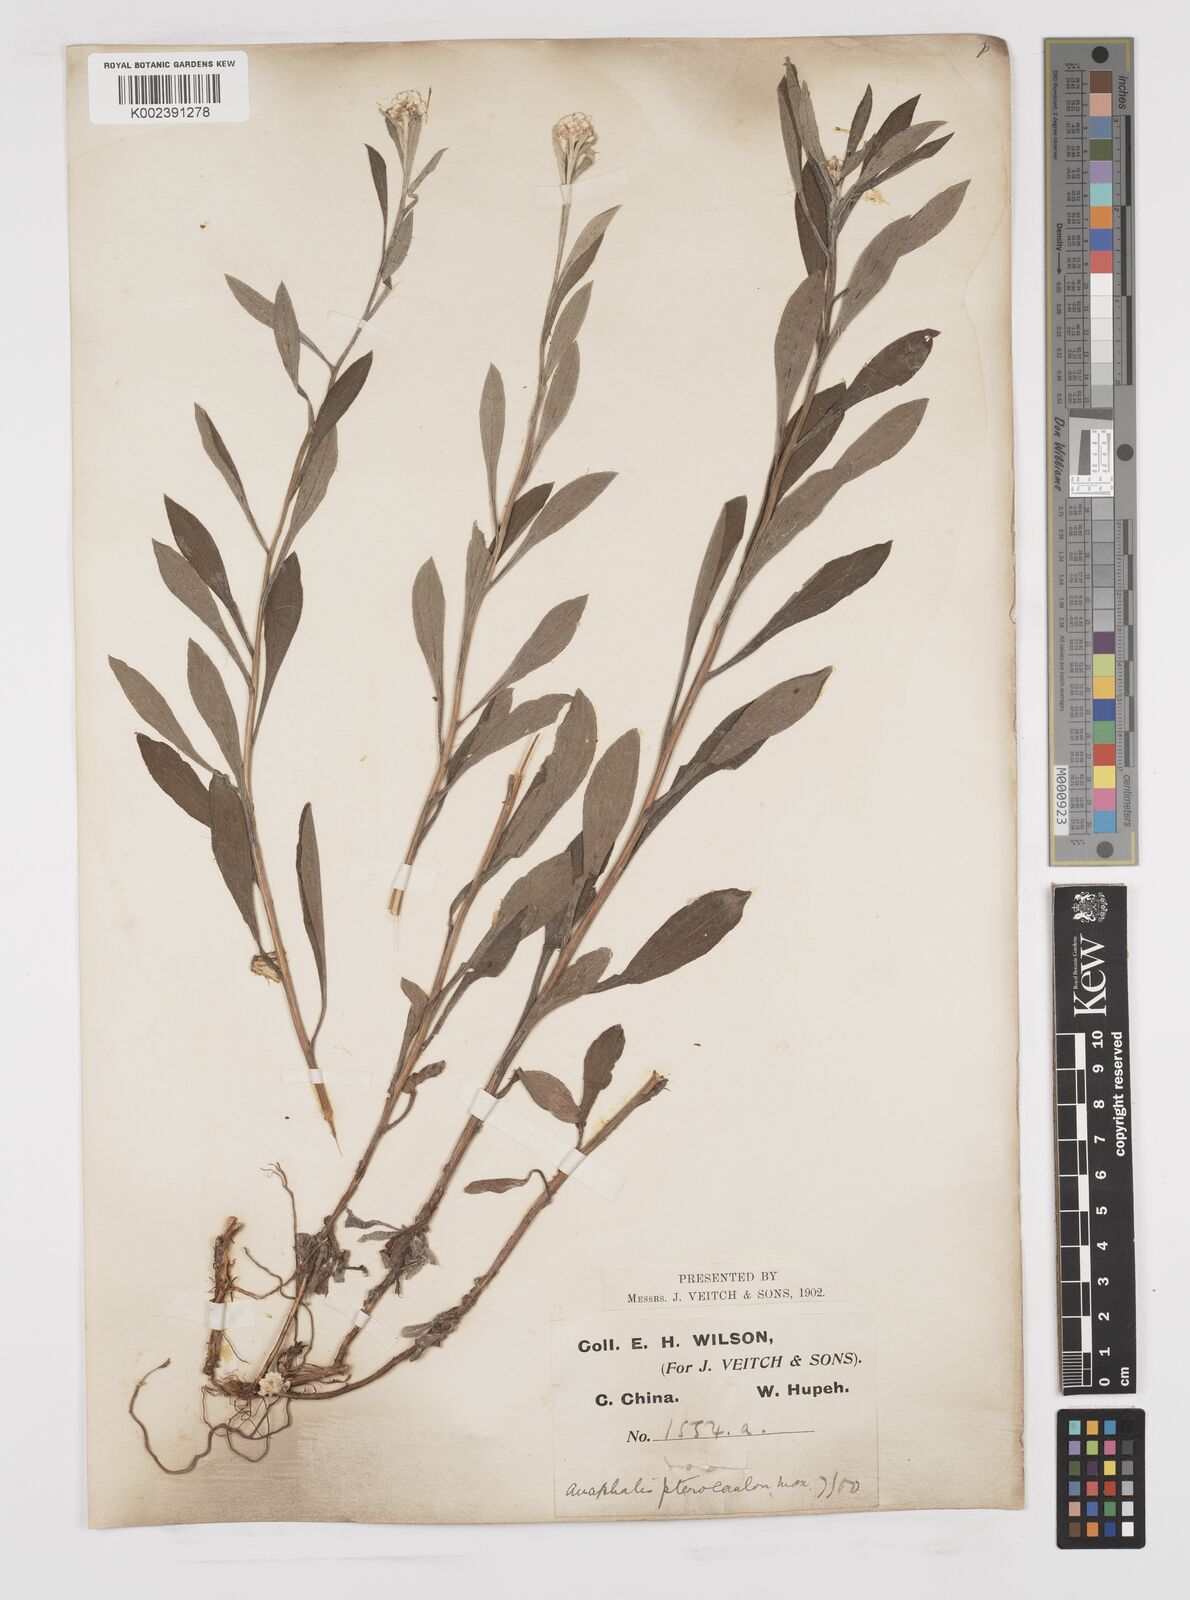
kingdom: Plantae
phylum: Tracheophyta
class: Magnoliopsida
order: Asterales
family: Asteraceae
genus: Anaphalis
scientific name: Anaphalis sinica
